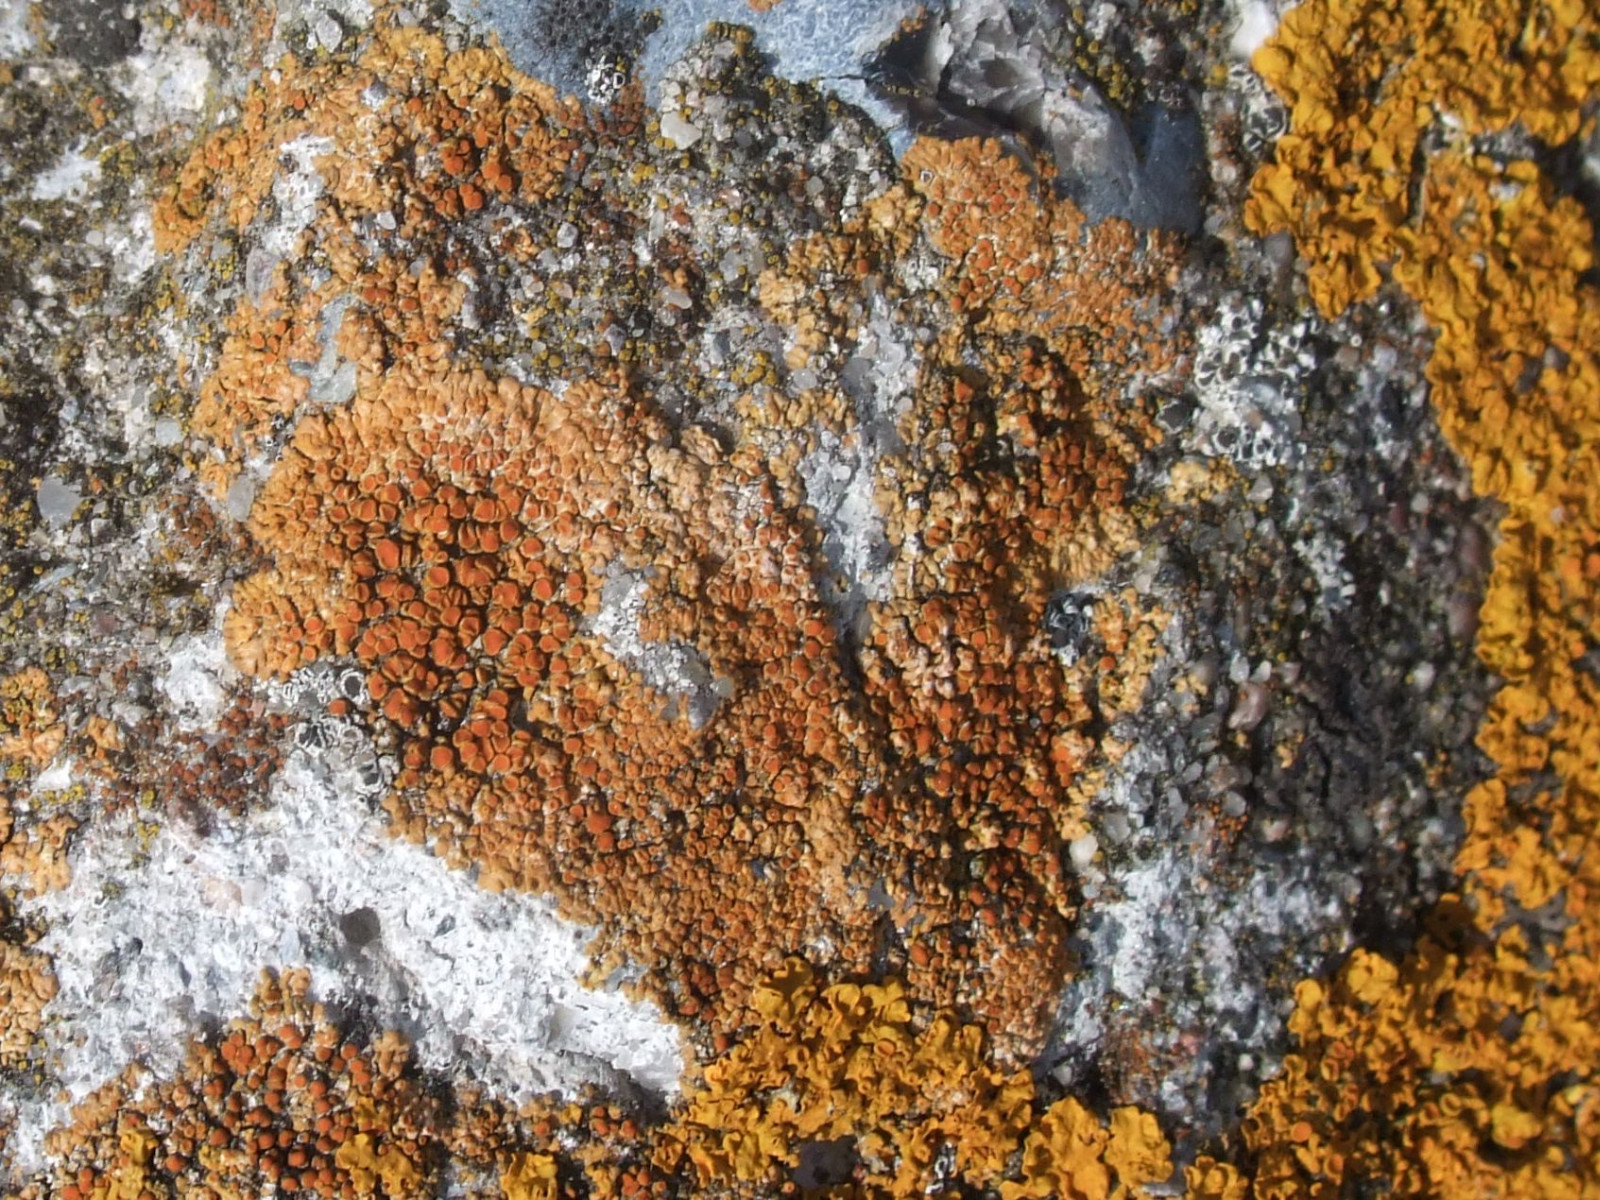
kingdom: Fungi
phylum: Ascomycota
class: Lecanoromycetes
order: Teloschistales
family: Teloschistaceae
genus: Calogaya
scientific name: Calogaya pusilla
